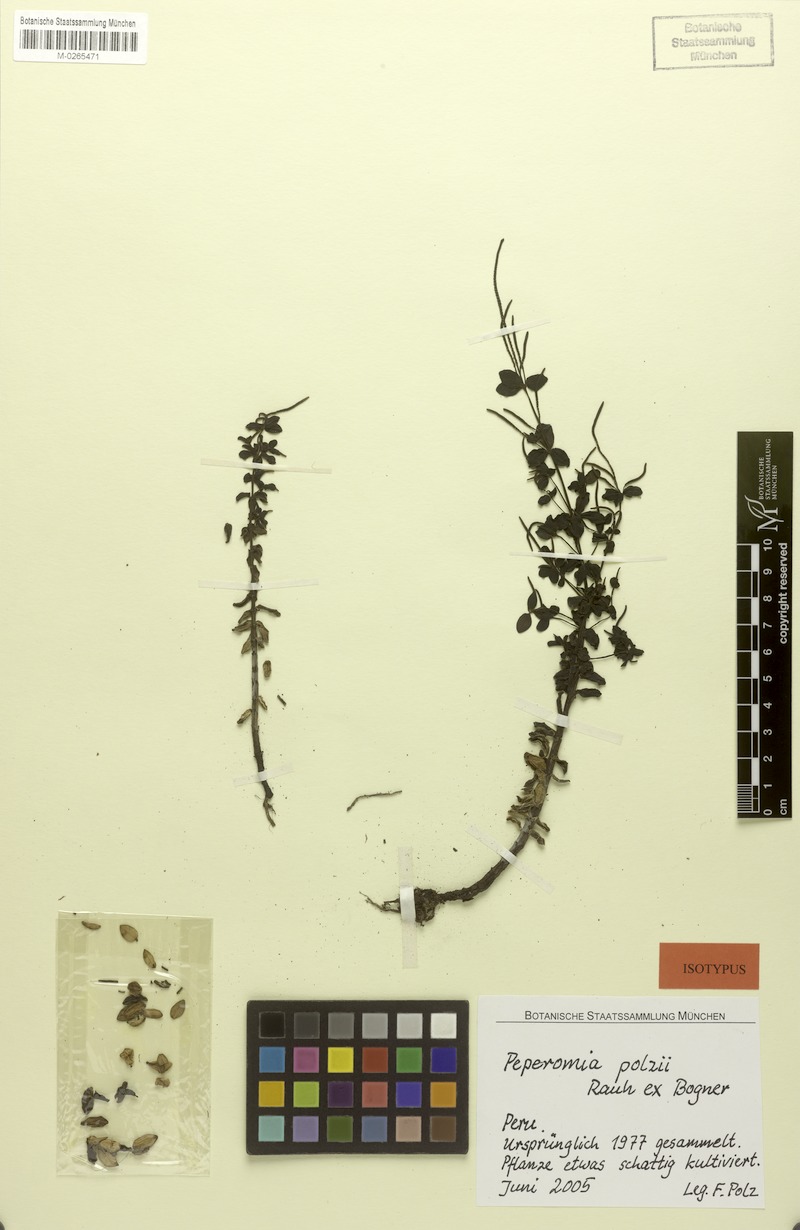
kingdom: Plantae
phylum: Tracheophyta
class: Magnoliopsida
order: Piperales
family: Piperaceae
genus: Peperomia
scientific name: Peperomia polzii
